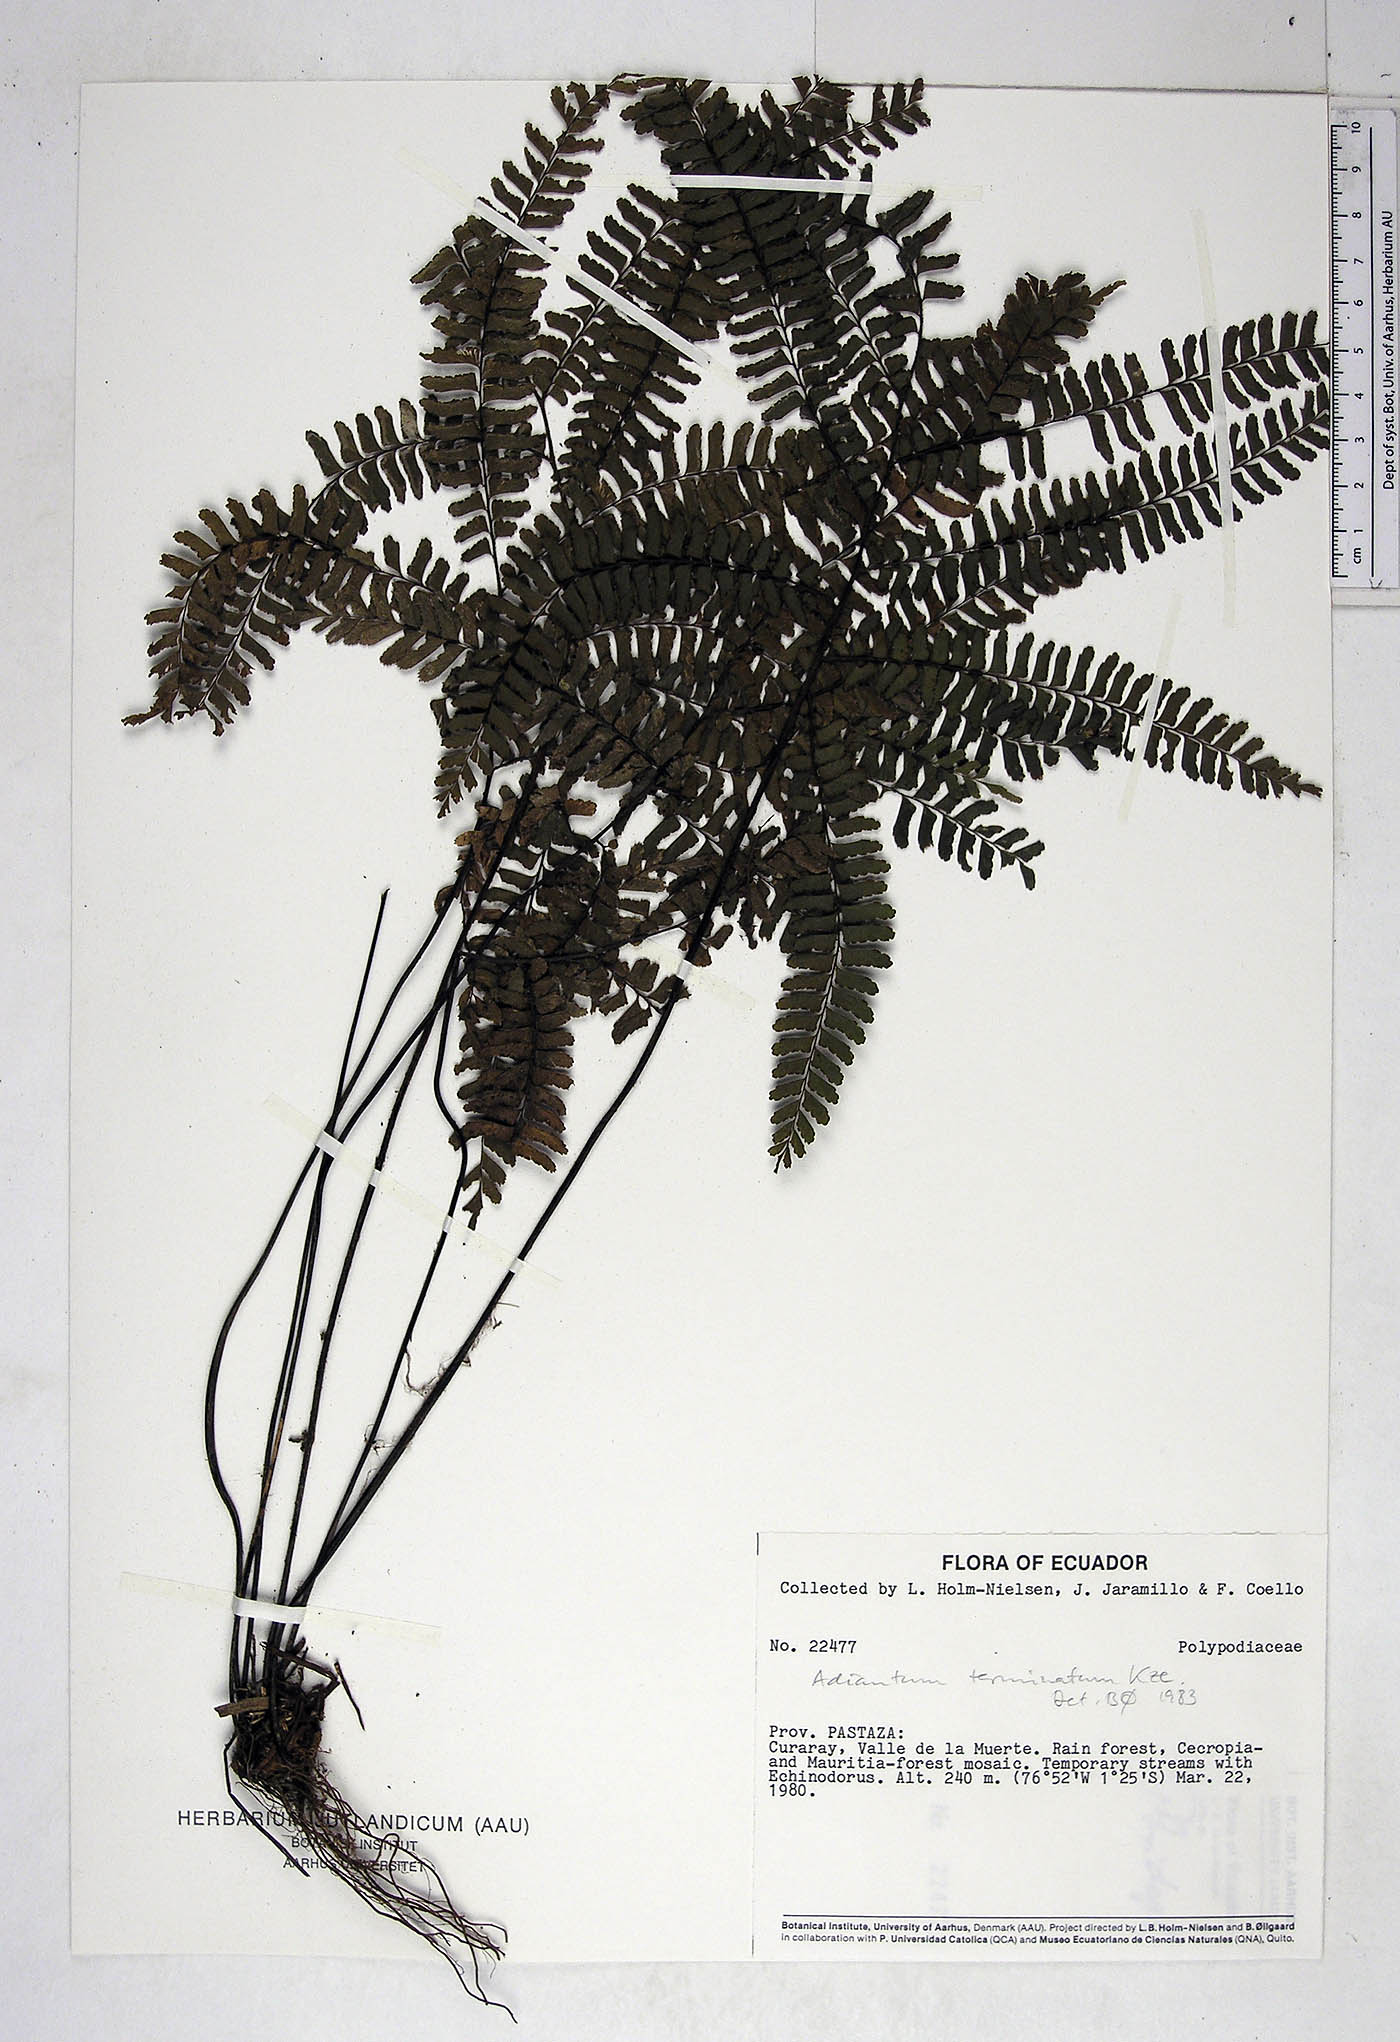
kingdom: Plantae
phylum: Tracheophyta
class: Polypodiopsida
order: Polypodiales
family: Pteridaceae
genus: Adiantum
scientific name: Adiantum terminatum
